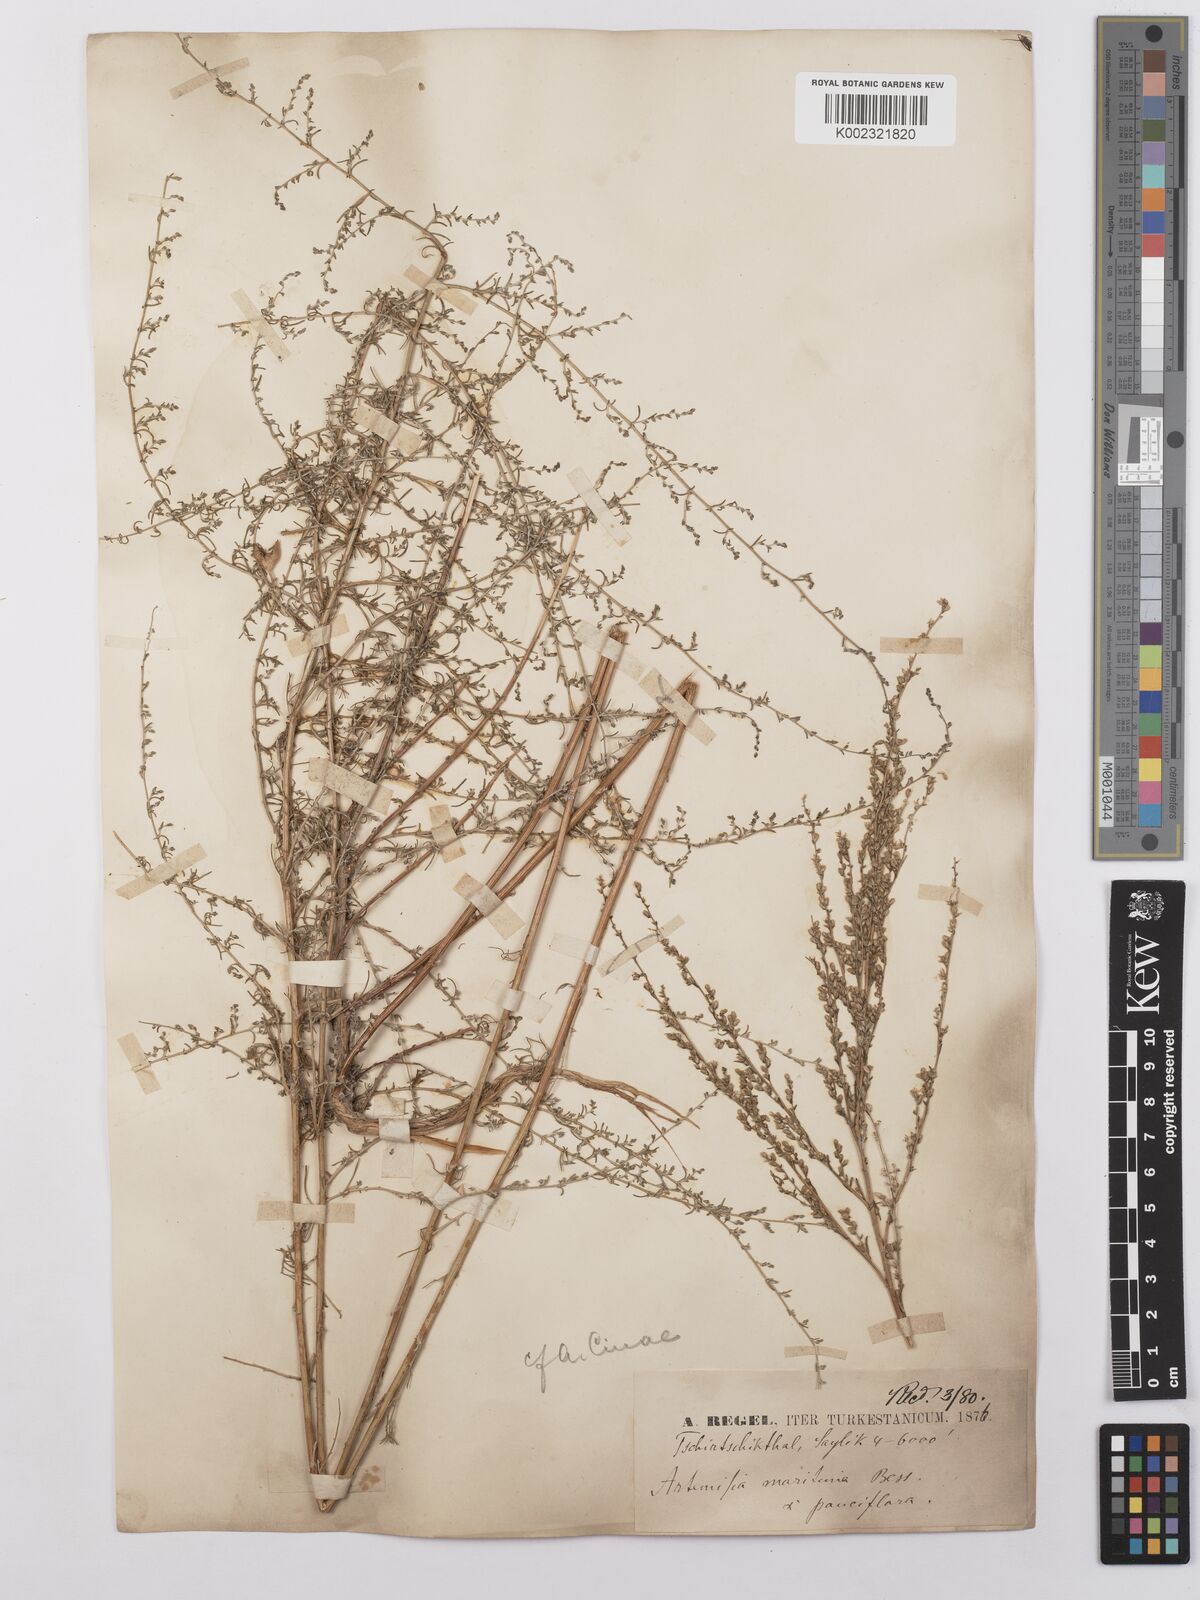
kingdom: Plantae
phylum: Tracheophyta
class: Magnoliopsida
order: Asterales
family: Asteraceae
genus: Artemisia
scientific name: Artemisia cina
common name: Levant wormseed
